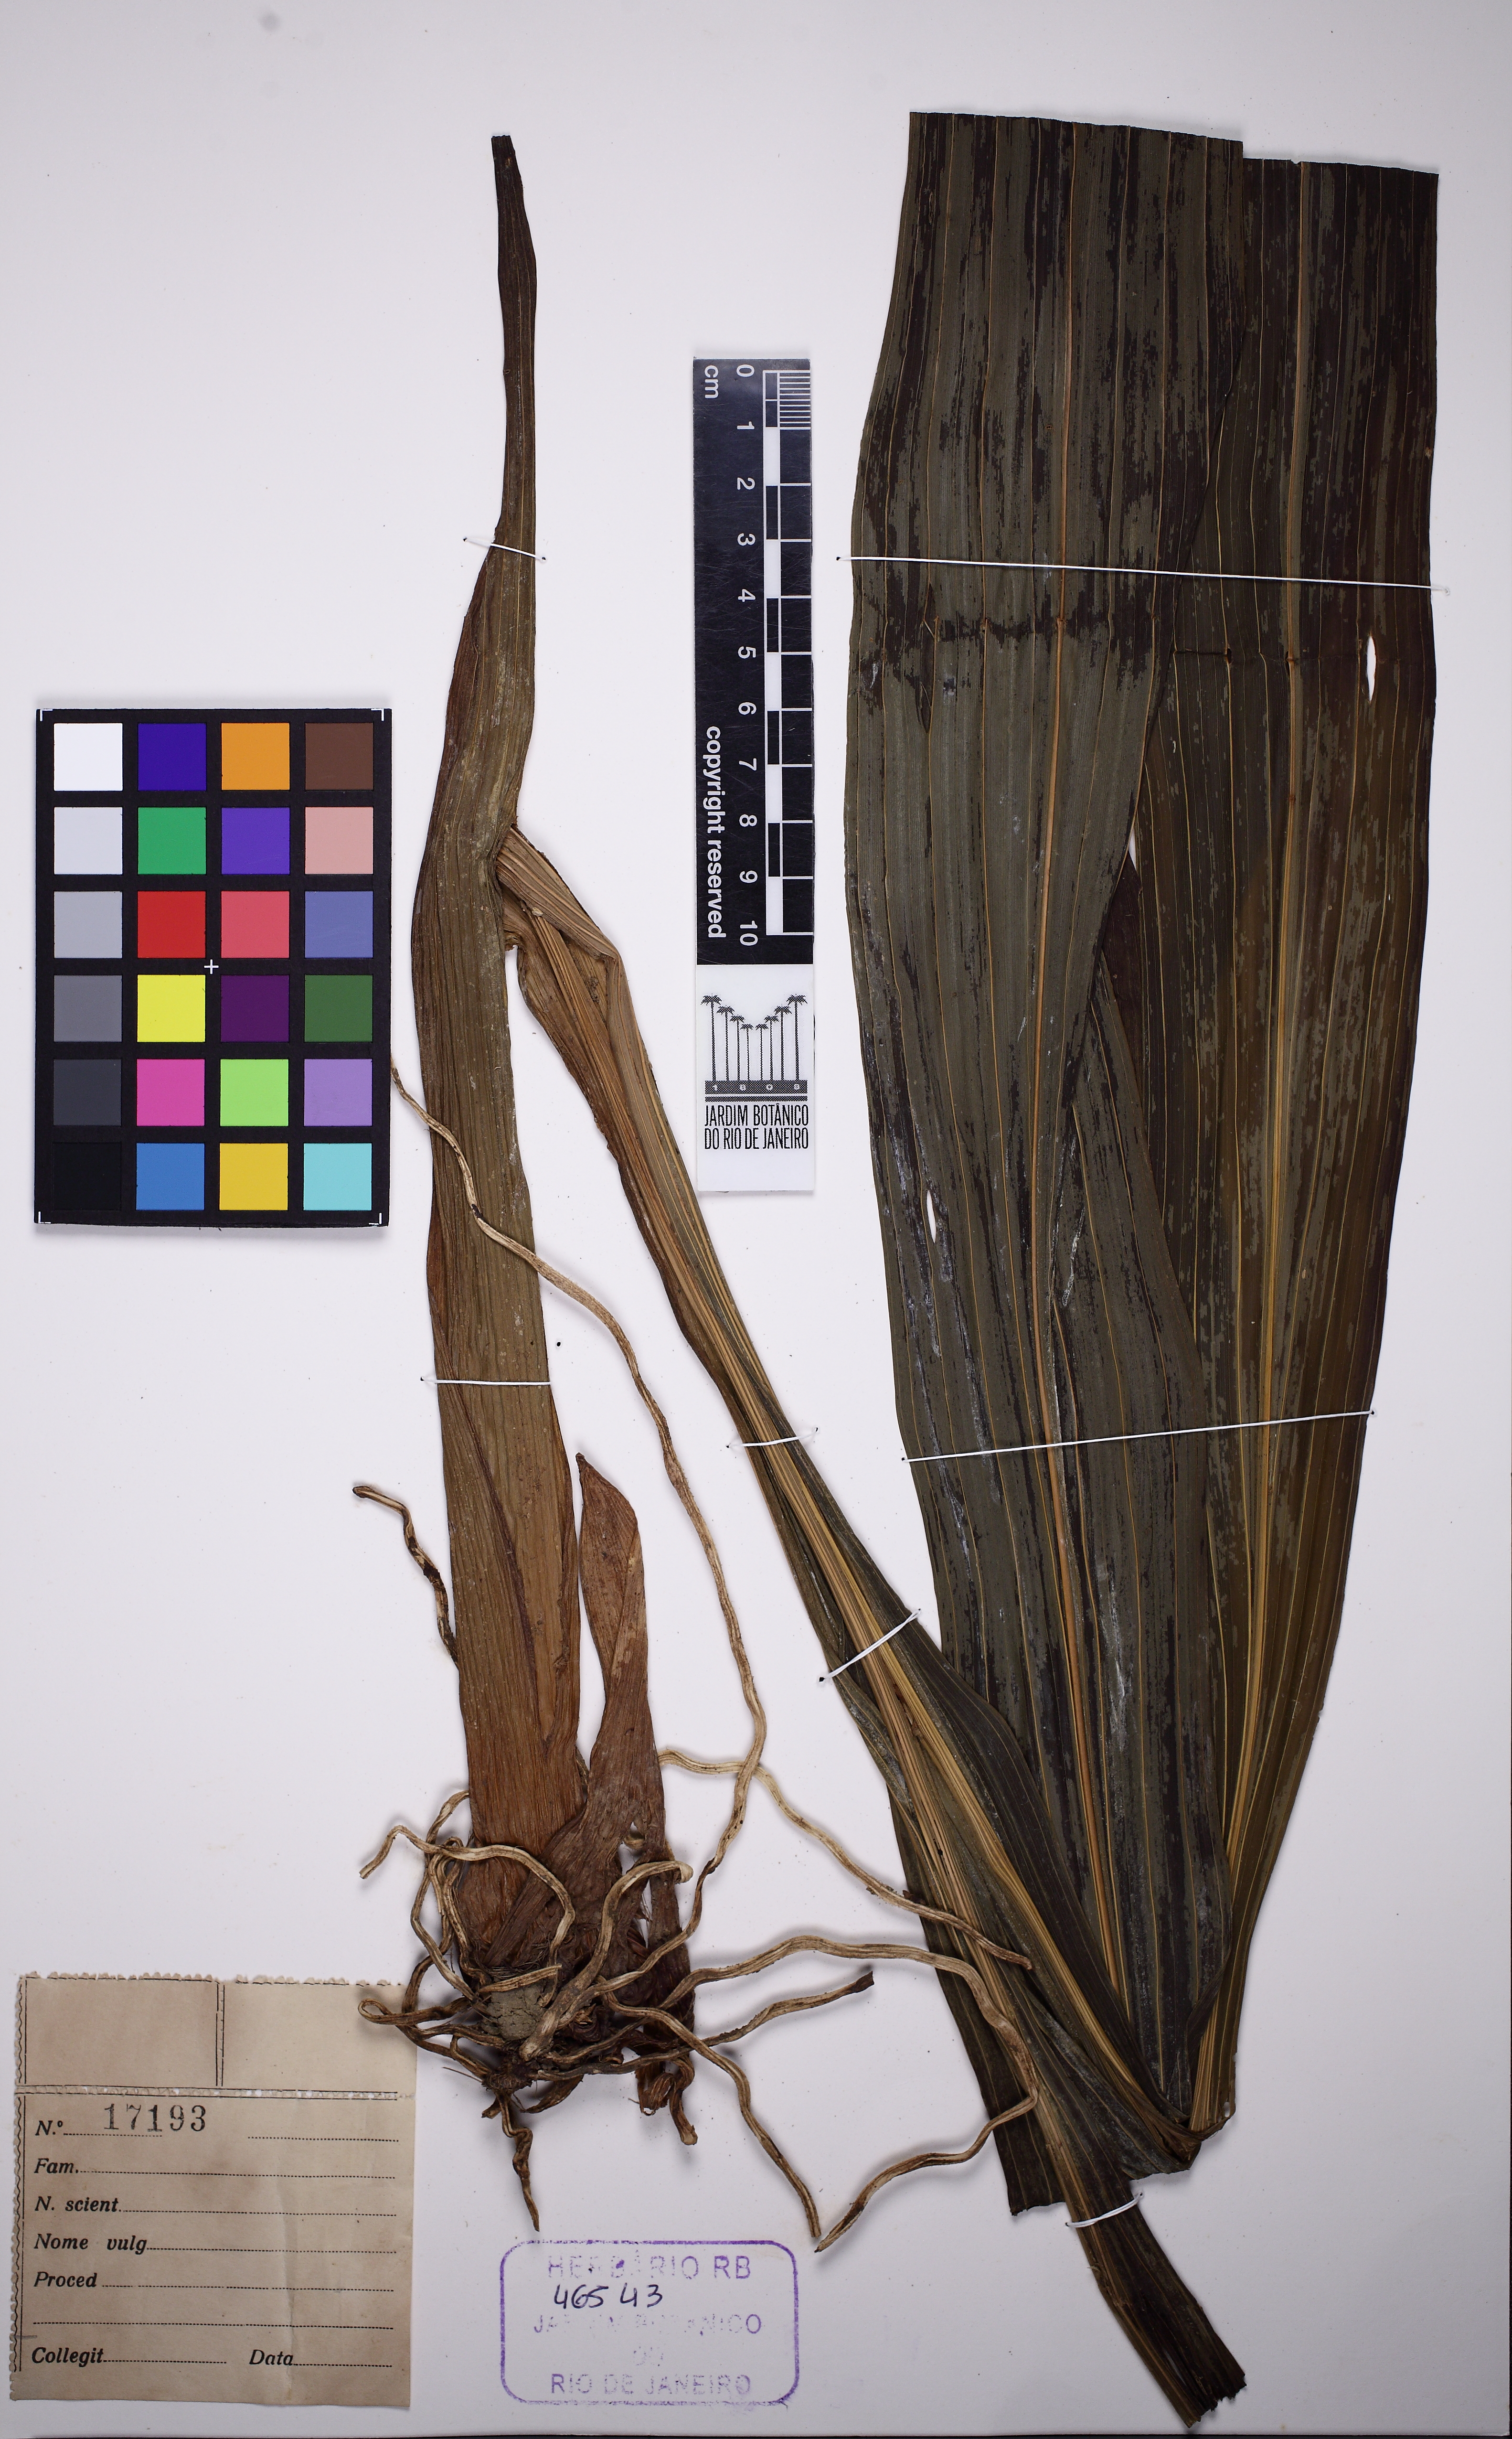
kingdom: Plantae
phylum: Tracheophyta
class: Liliopsida
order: Asparagales
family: Orchidaceae
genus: Eulophia
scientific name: Eulophia alta
